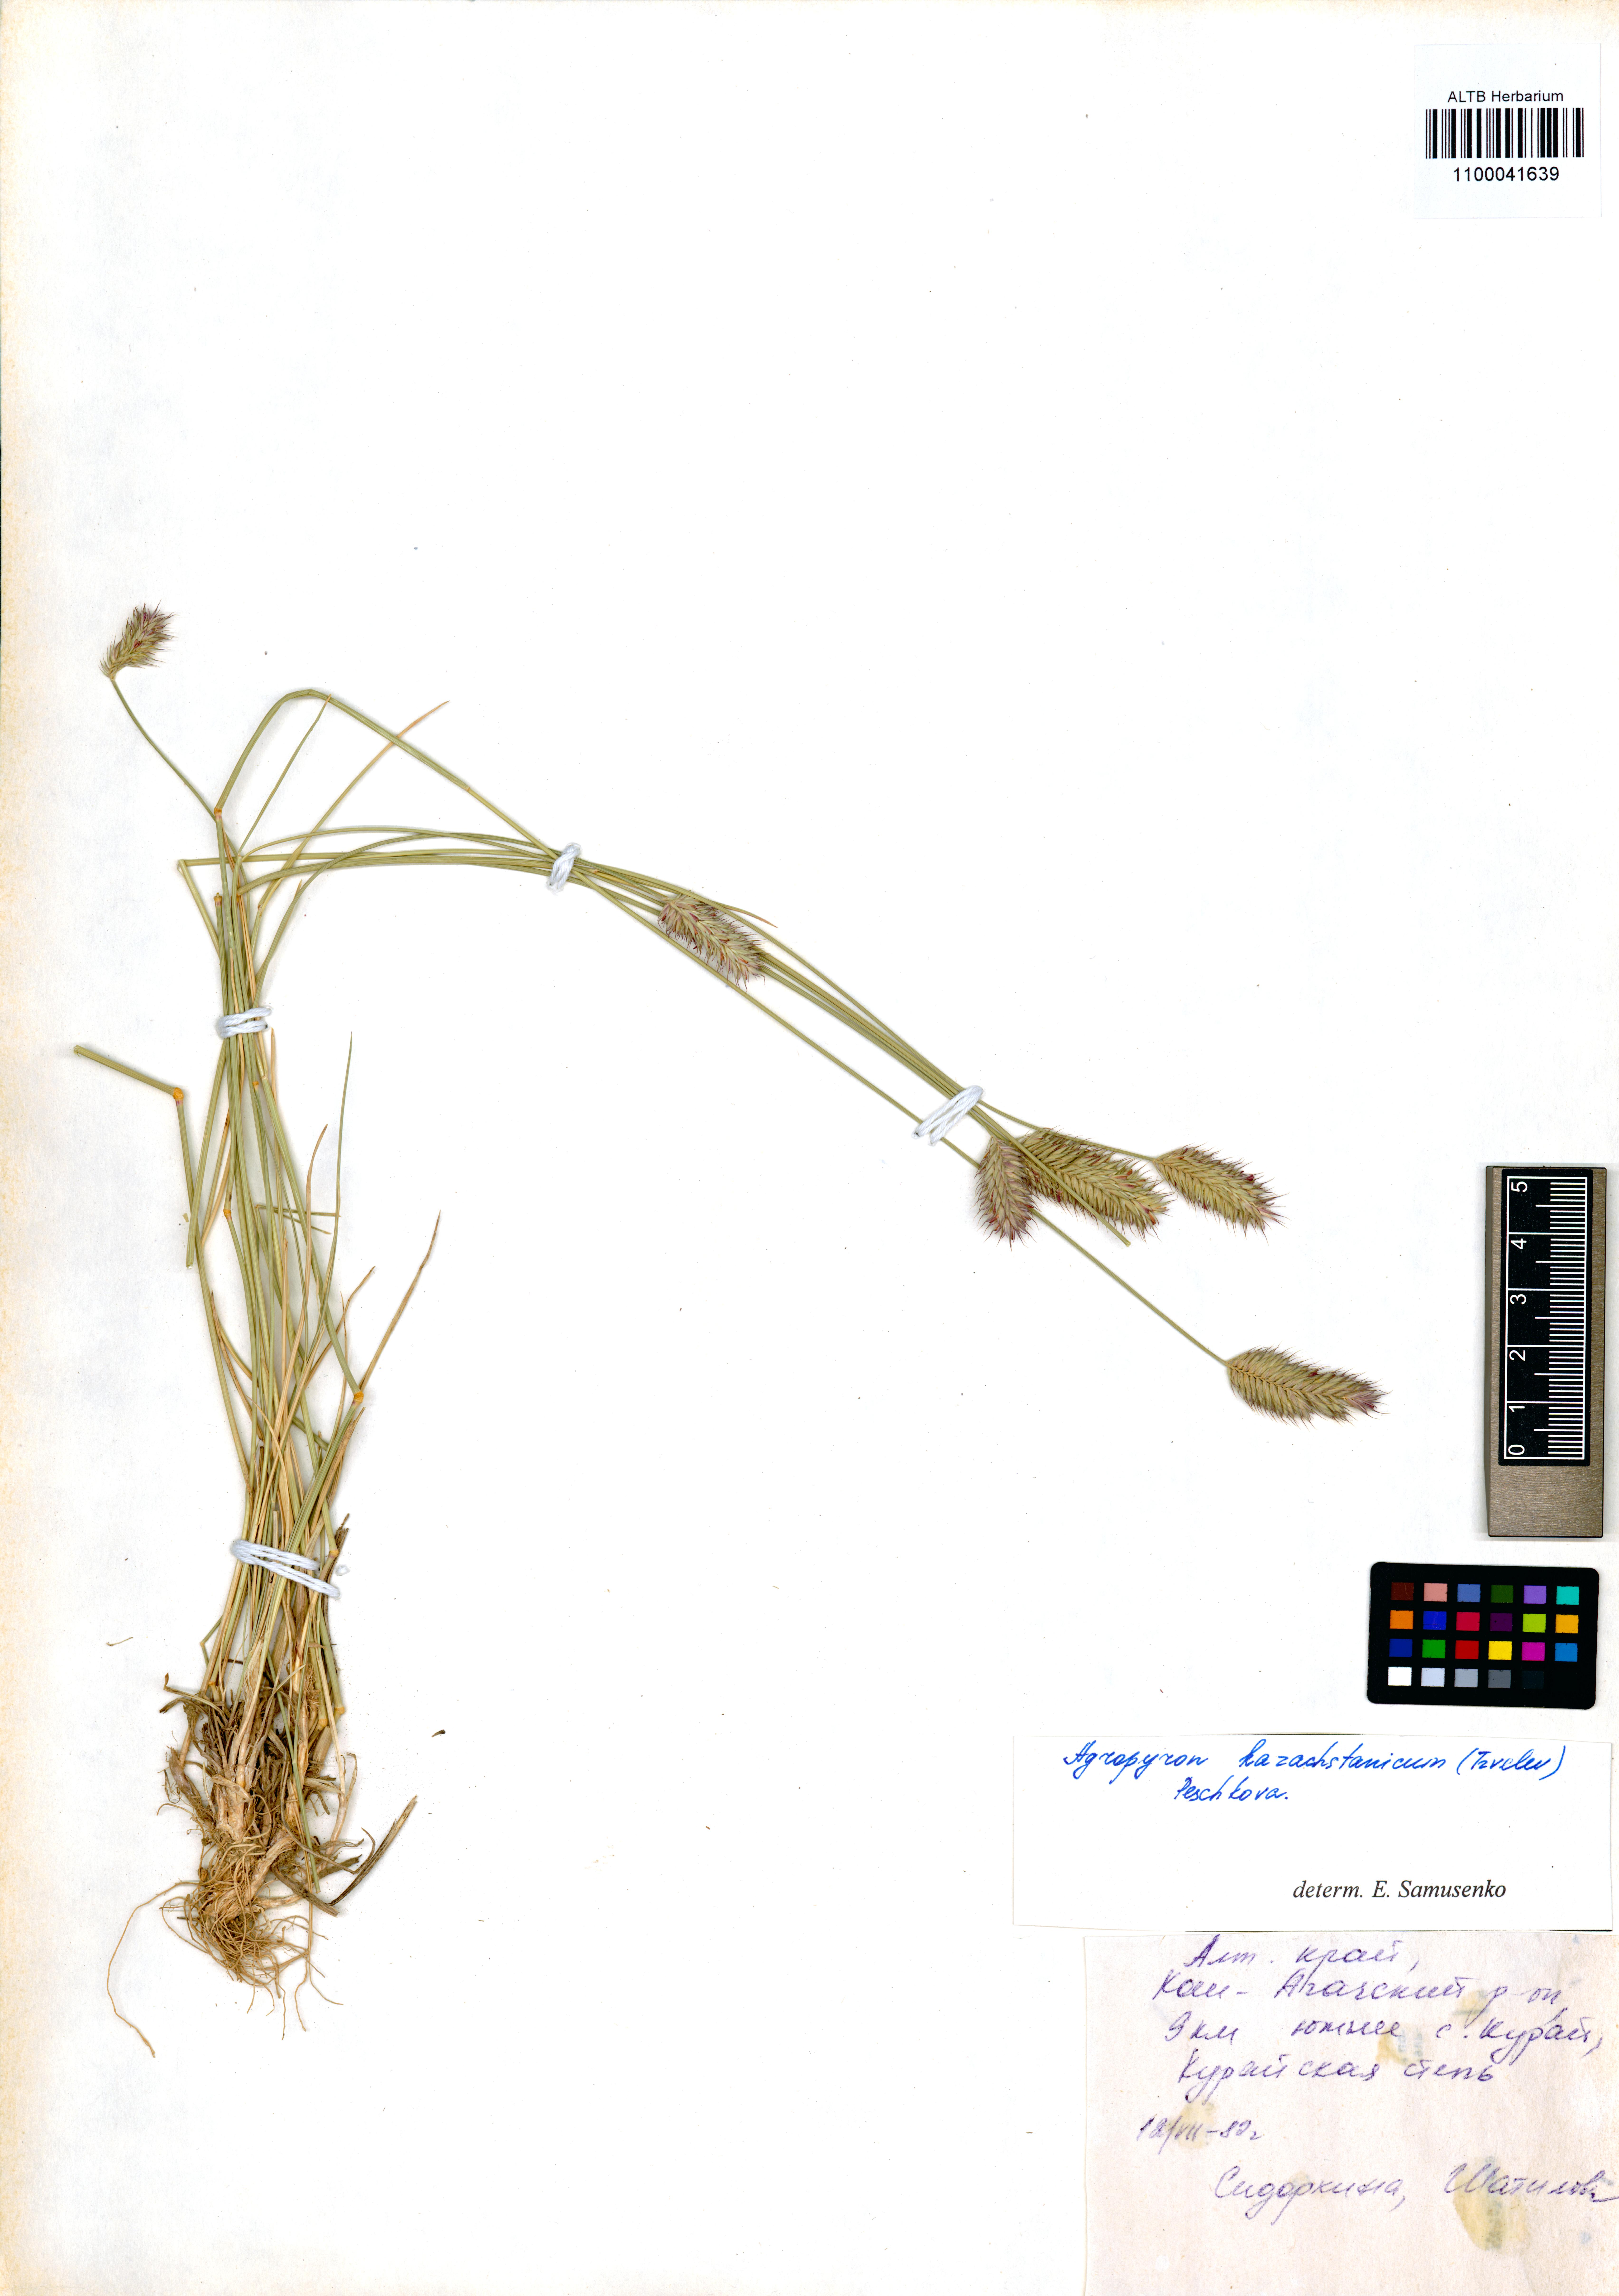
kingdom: Plantae
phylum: Tracheophyta
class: Liliopsida
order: Poales
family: Poaceae
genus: Agropyron
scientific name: Agropyron cristatum
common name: Crested wheatgrass
